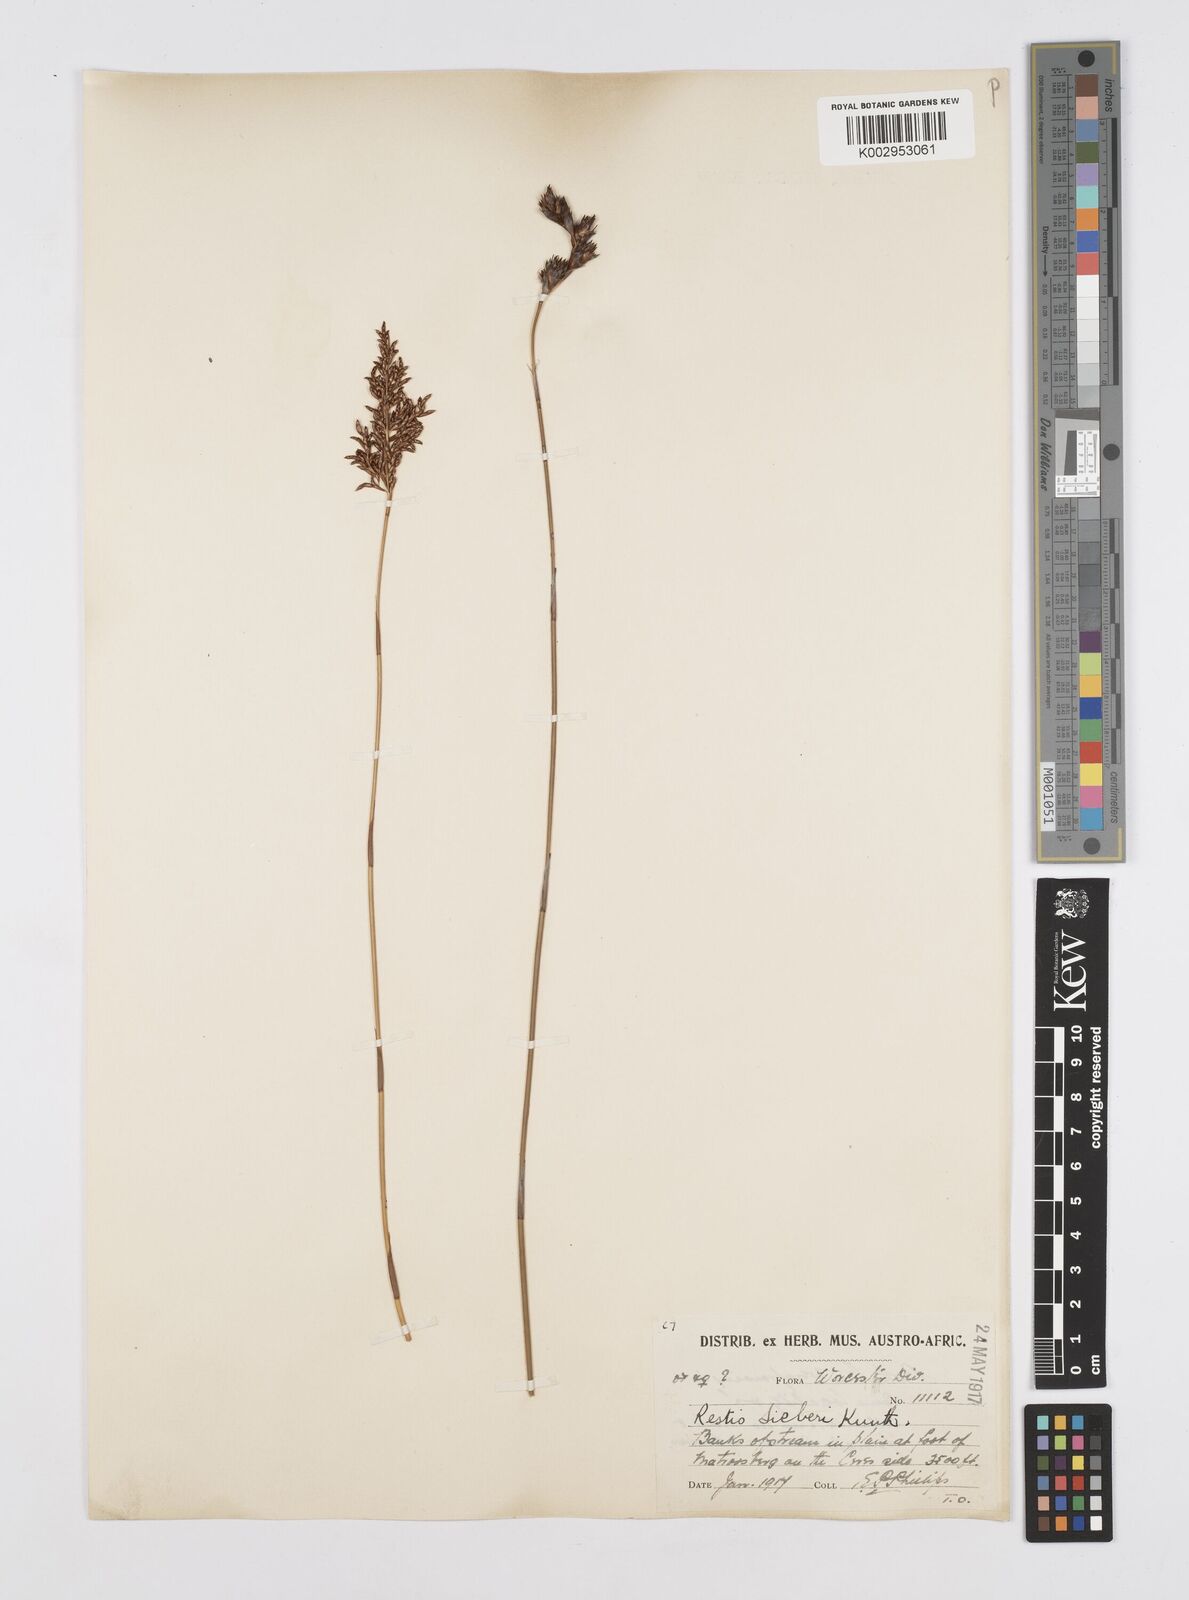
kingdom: Plantae
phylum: Tracheophyta
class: Liliopsida
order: Poales
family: Restionaceae
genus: Restio
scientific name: Restio sieberi
